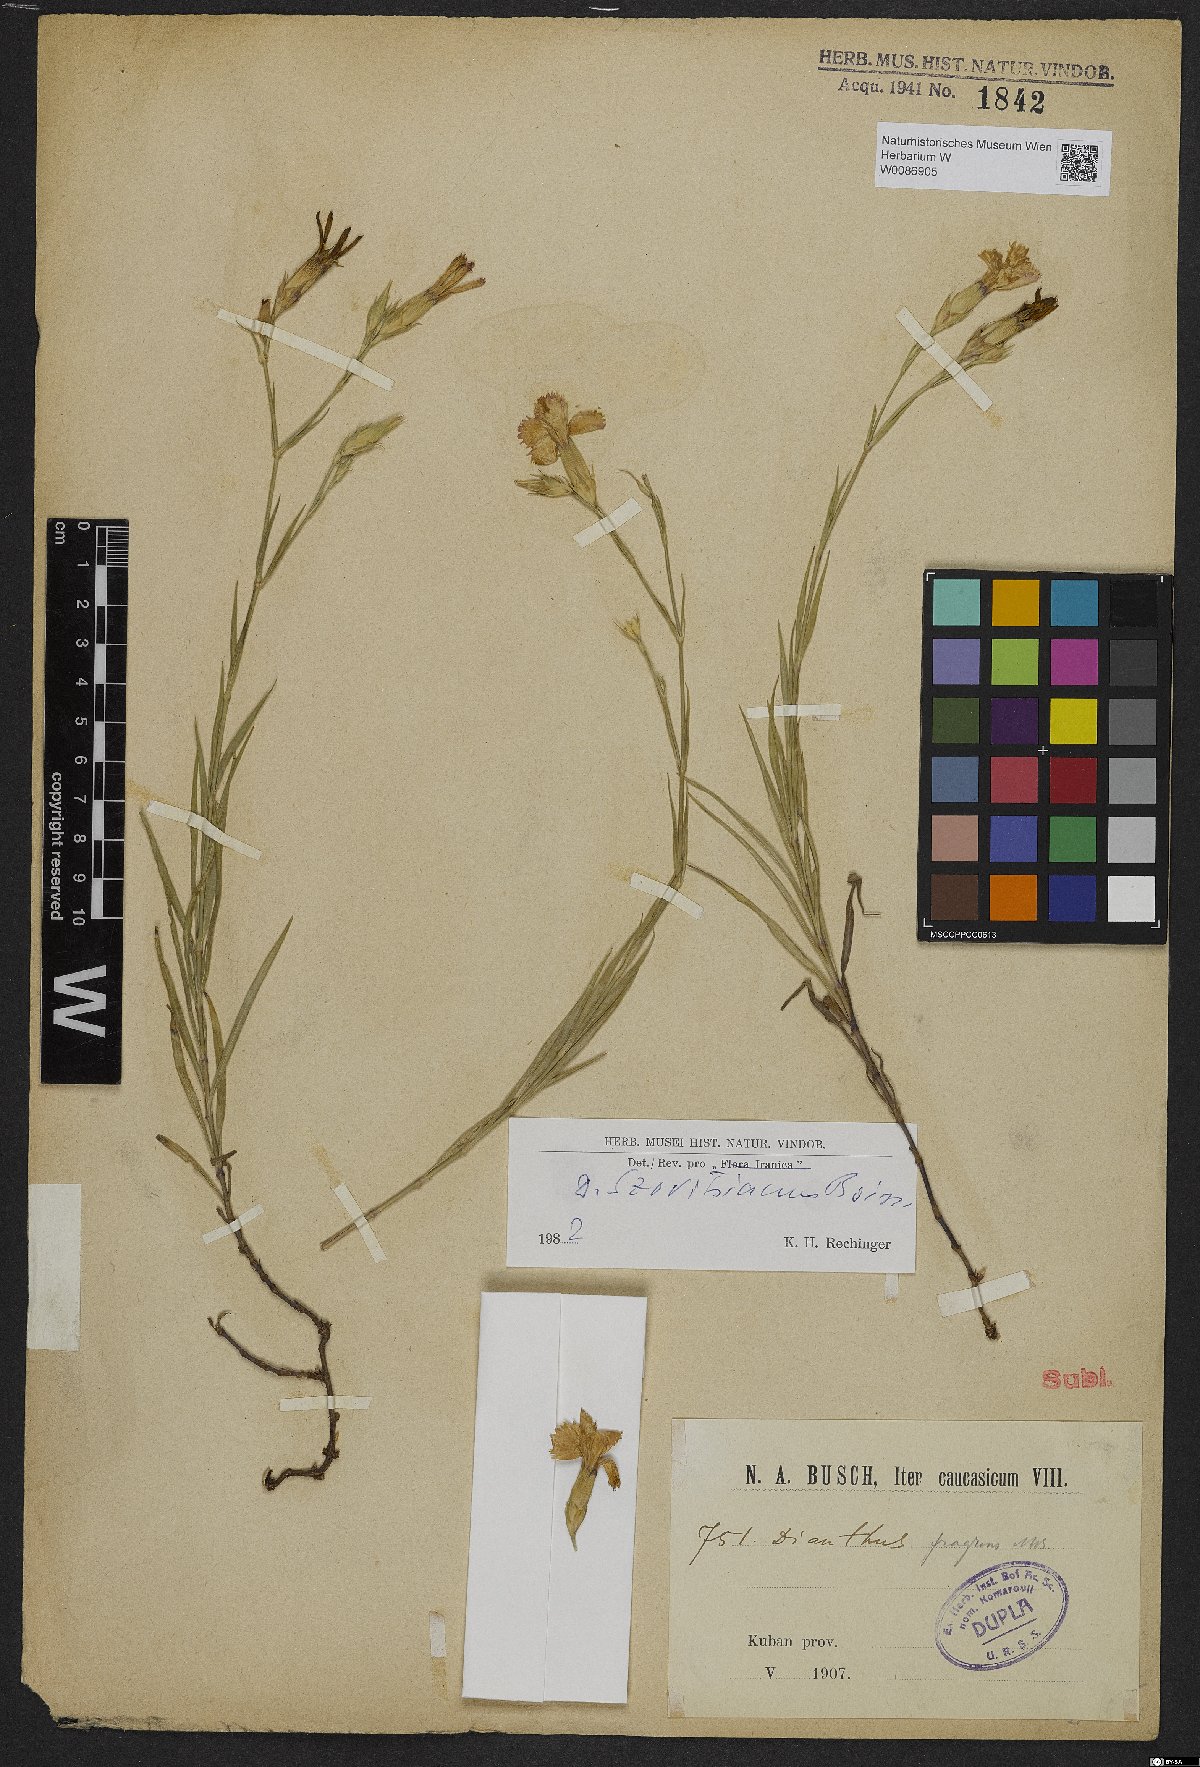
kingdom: Plantae
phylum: Tracheophyta
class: Magnoliopsida
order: Caryophyllales
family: Caryophyllaceae
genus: Dianthus
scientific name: Dianthus szowitsianus
